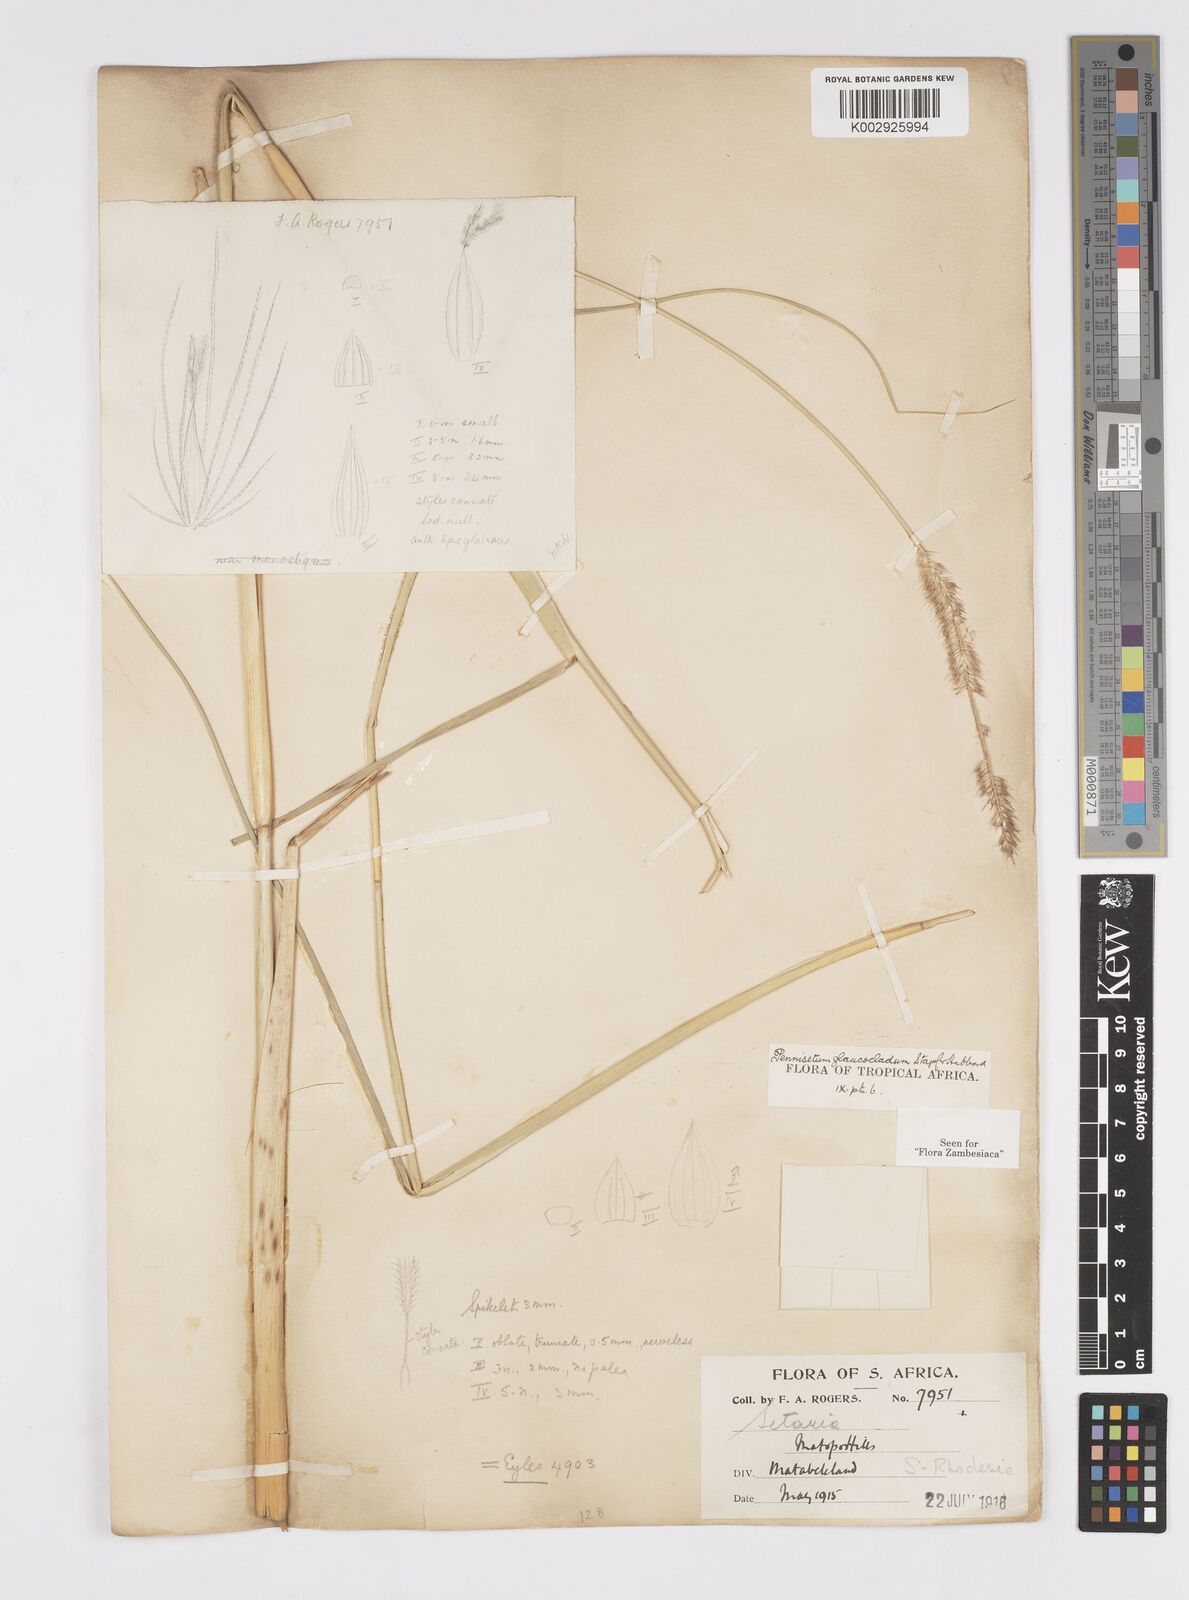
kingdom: Plantae
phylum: Tracheophyta
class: Liliopsida
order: Poales
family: Poaceae
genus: Cenchrus
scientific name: Cenchrus caudatus
